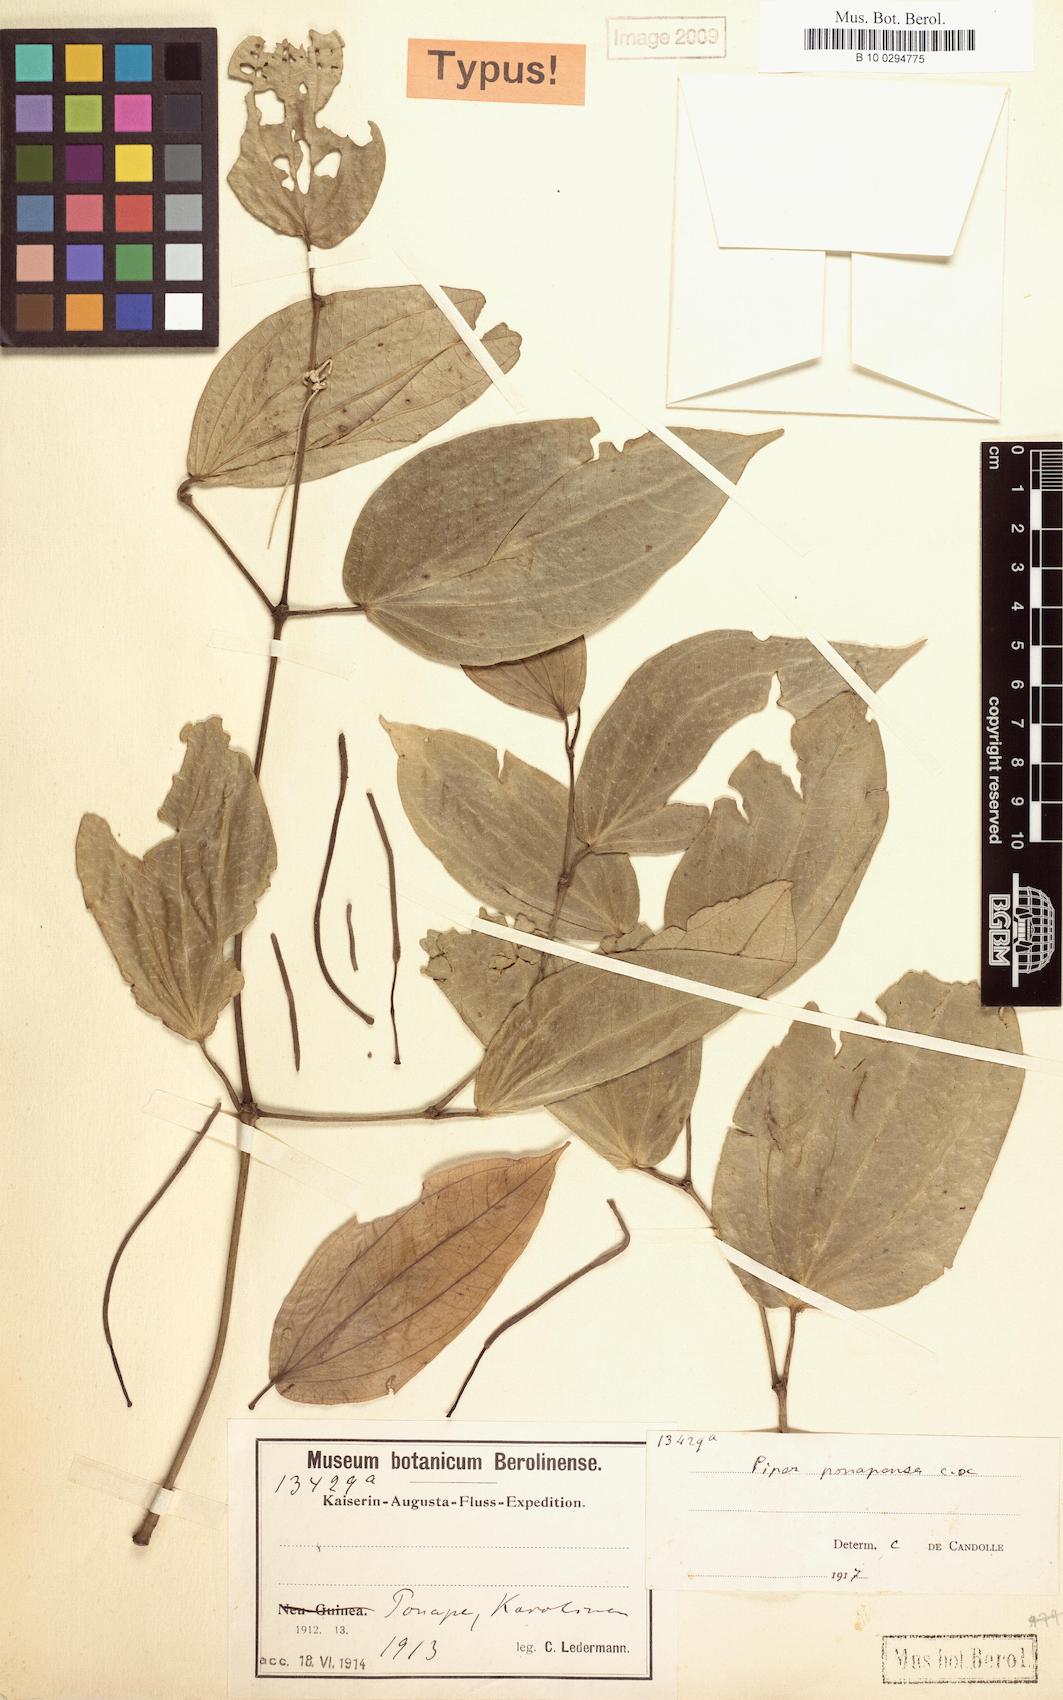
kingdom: Plantae
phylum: Tracheophyta
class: Magnoliopsida
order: Piperales
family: Piperaceae
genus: Piper
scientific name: Piper ponapense
